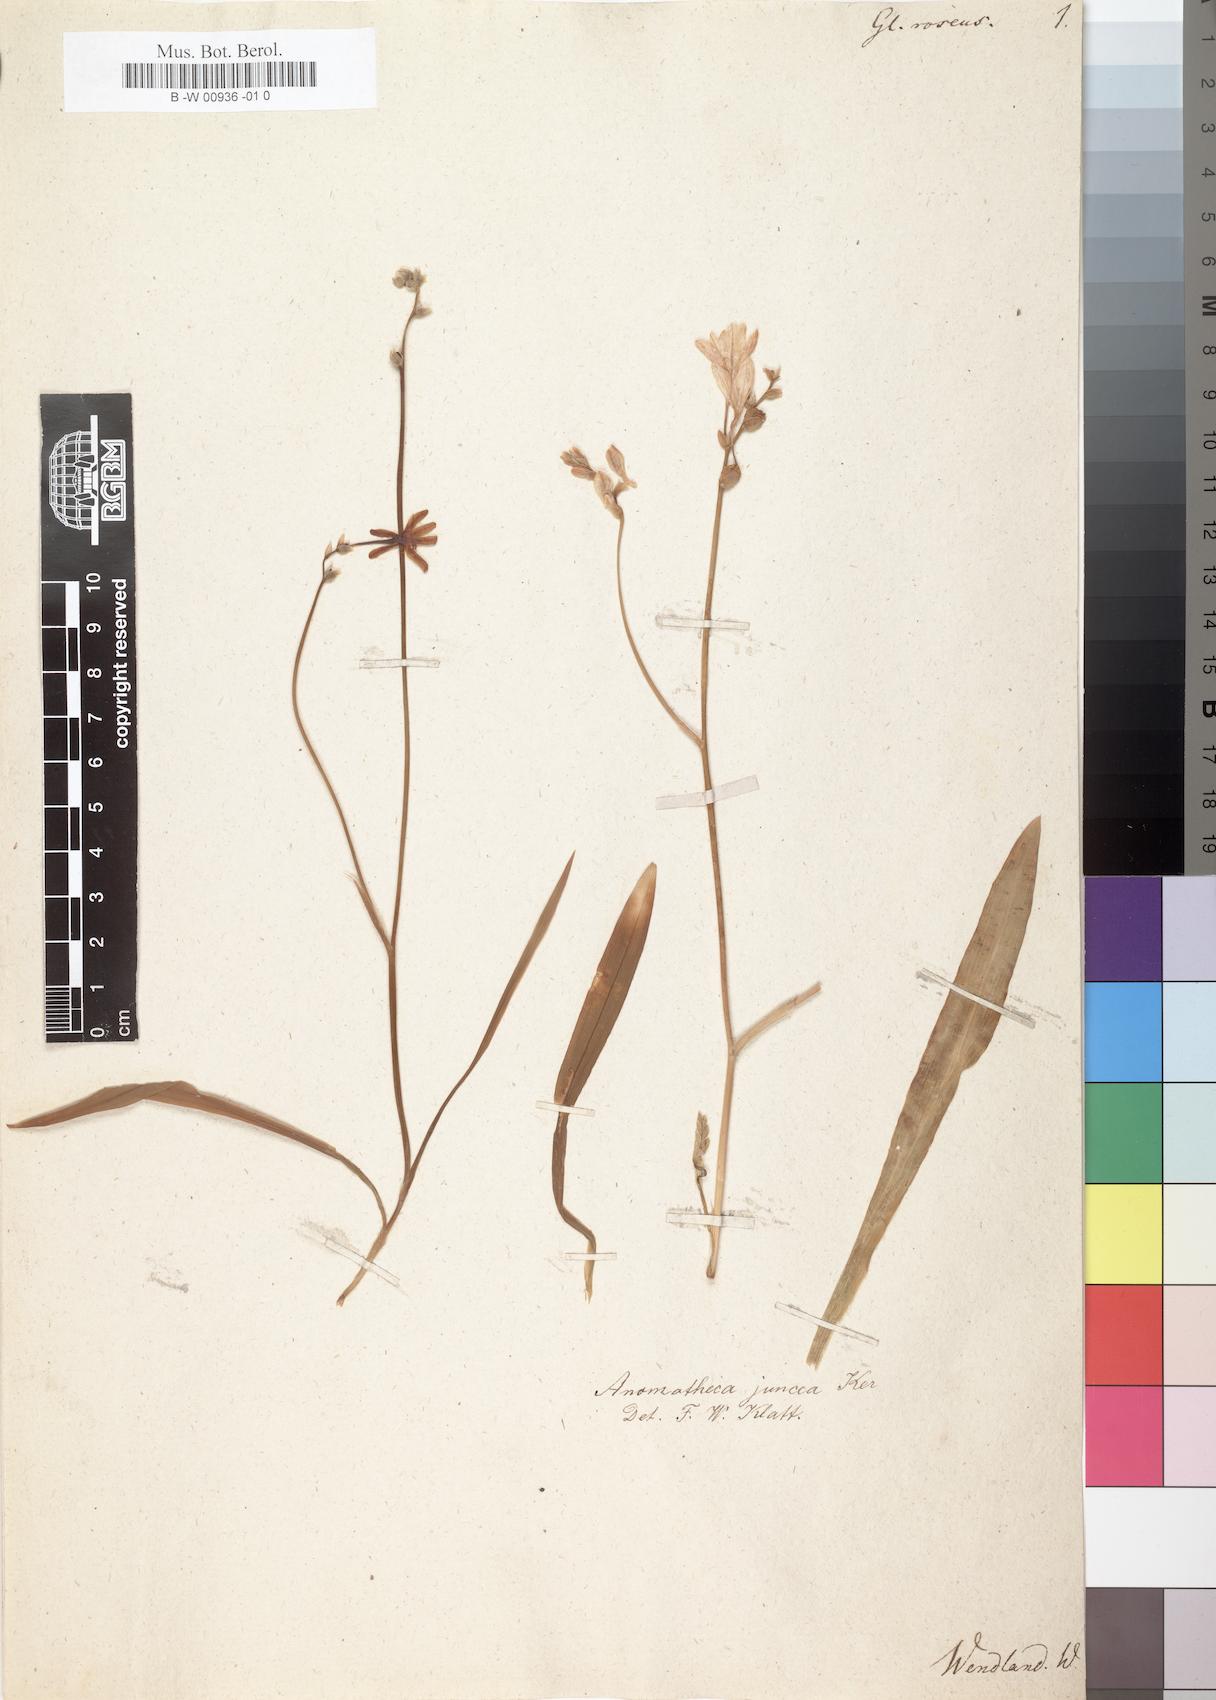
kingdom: Plantae
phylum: Tracheophyta
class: Liliopsida
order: Asparagales
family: Iridaceae
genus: Ixia
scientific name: Ixia maculata
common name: Spotted african cornlily
